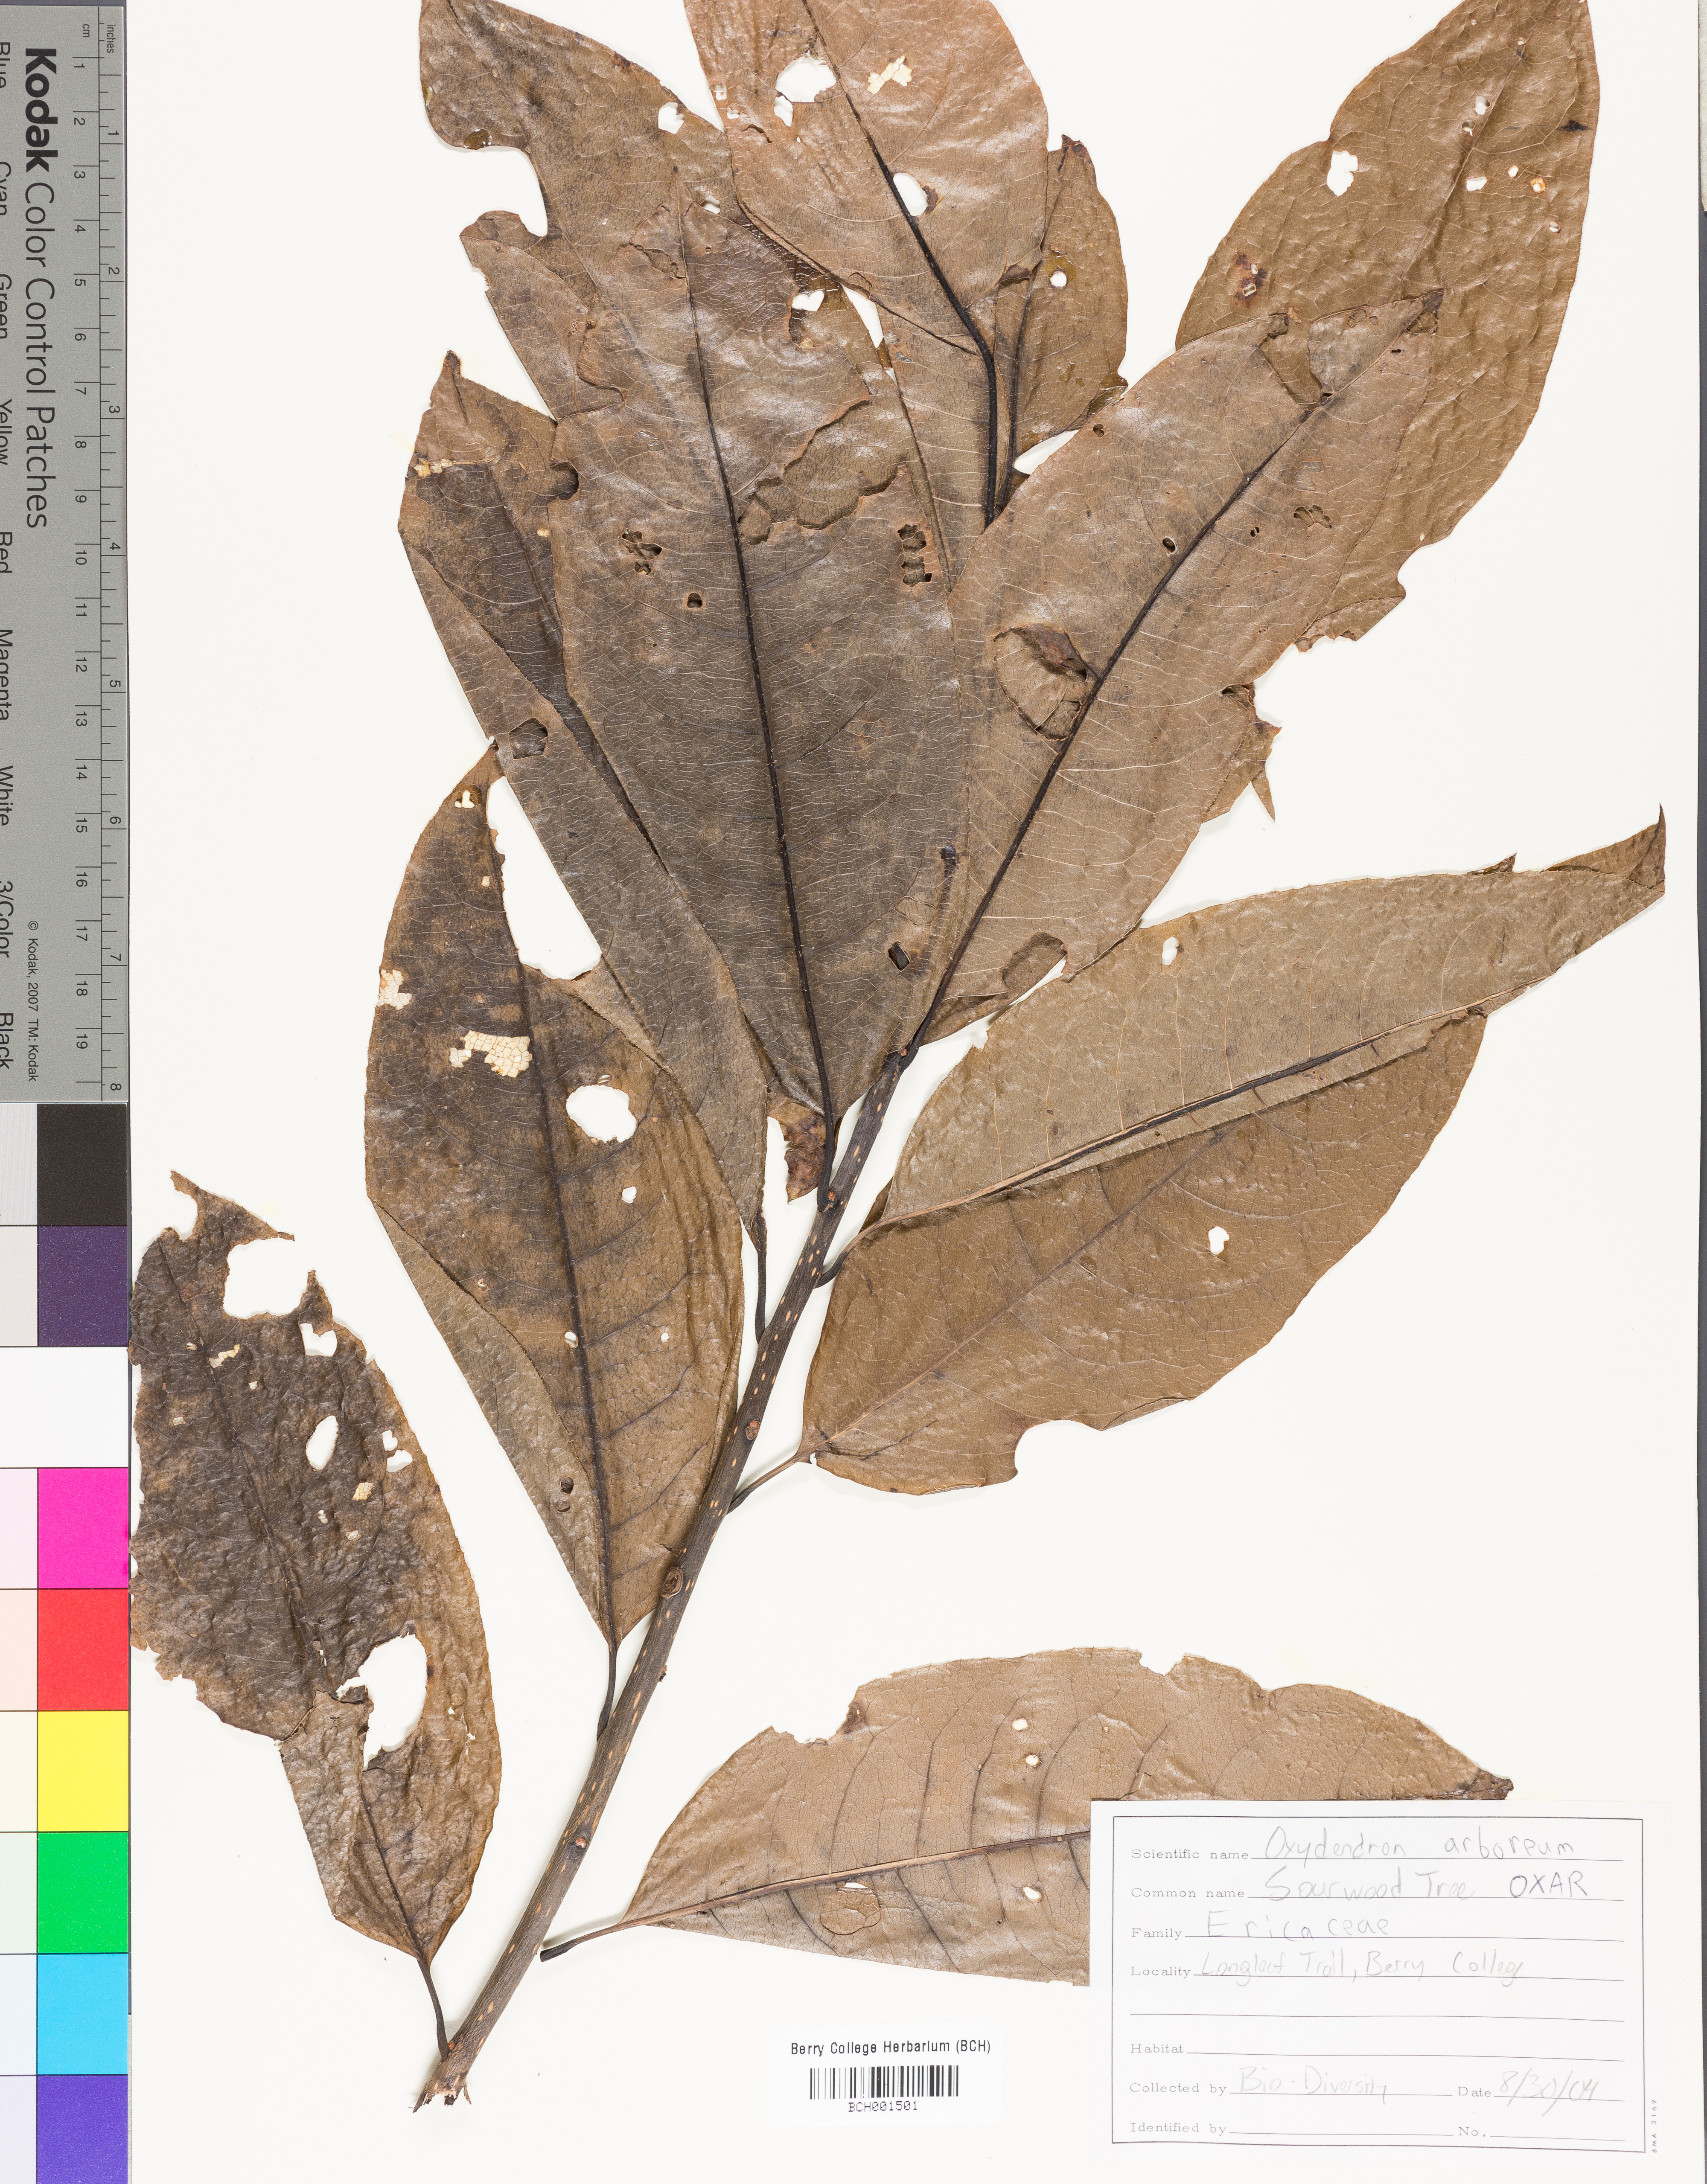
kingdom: Plantae
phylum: Tracheophyta
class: Magnoliopsida
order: Ericales
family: Ericaceae
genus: Oxydendrum
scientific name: Oxydendrum arboreum
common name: Sourwood
